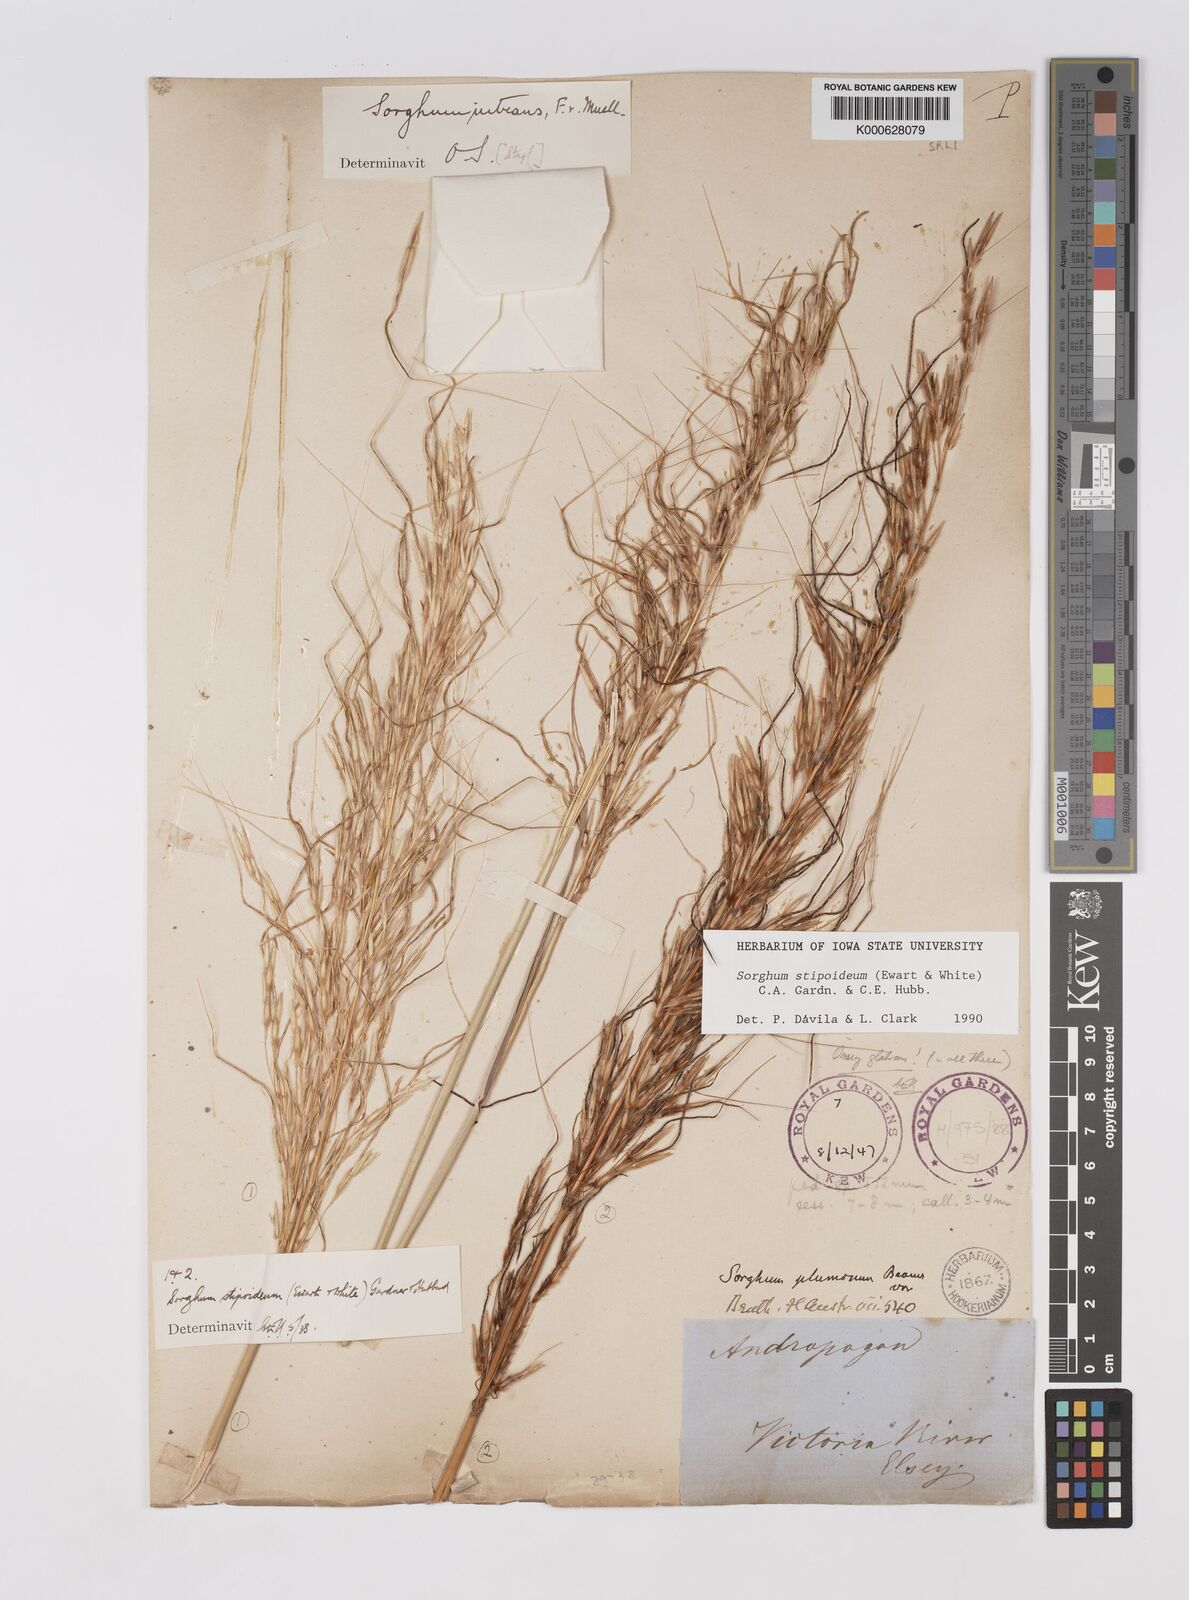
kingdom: Plantae
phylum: Tracheophyta
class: Liliopsida
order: Poales
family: Poaceae
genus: Sarga
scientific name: Sarga stipoidea
